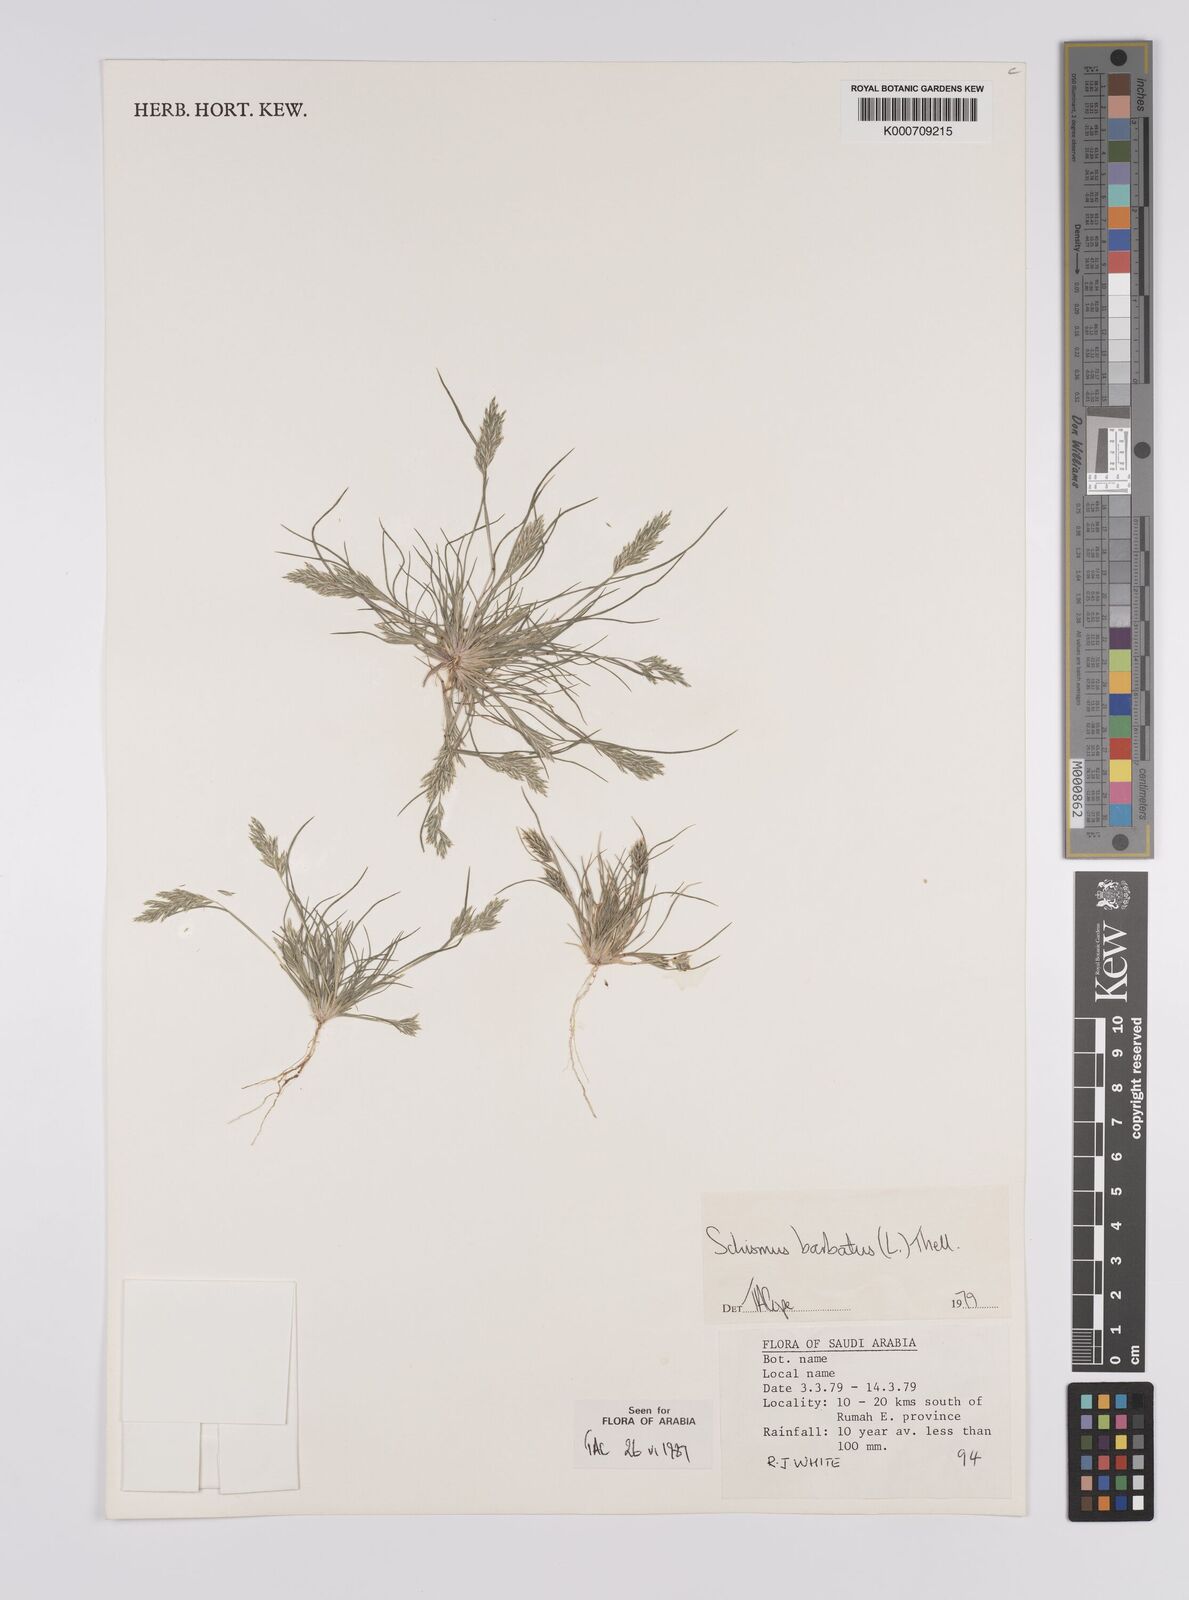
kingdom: Plantae
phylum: Tracheophyta
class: Liliopsida
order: Poales
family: Poaceae
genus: Schismus
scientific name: Schismus barbatus
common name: Kelch-grass
